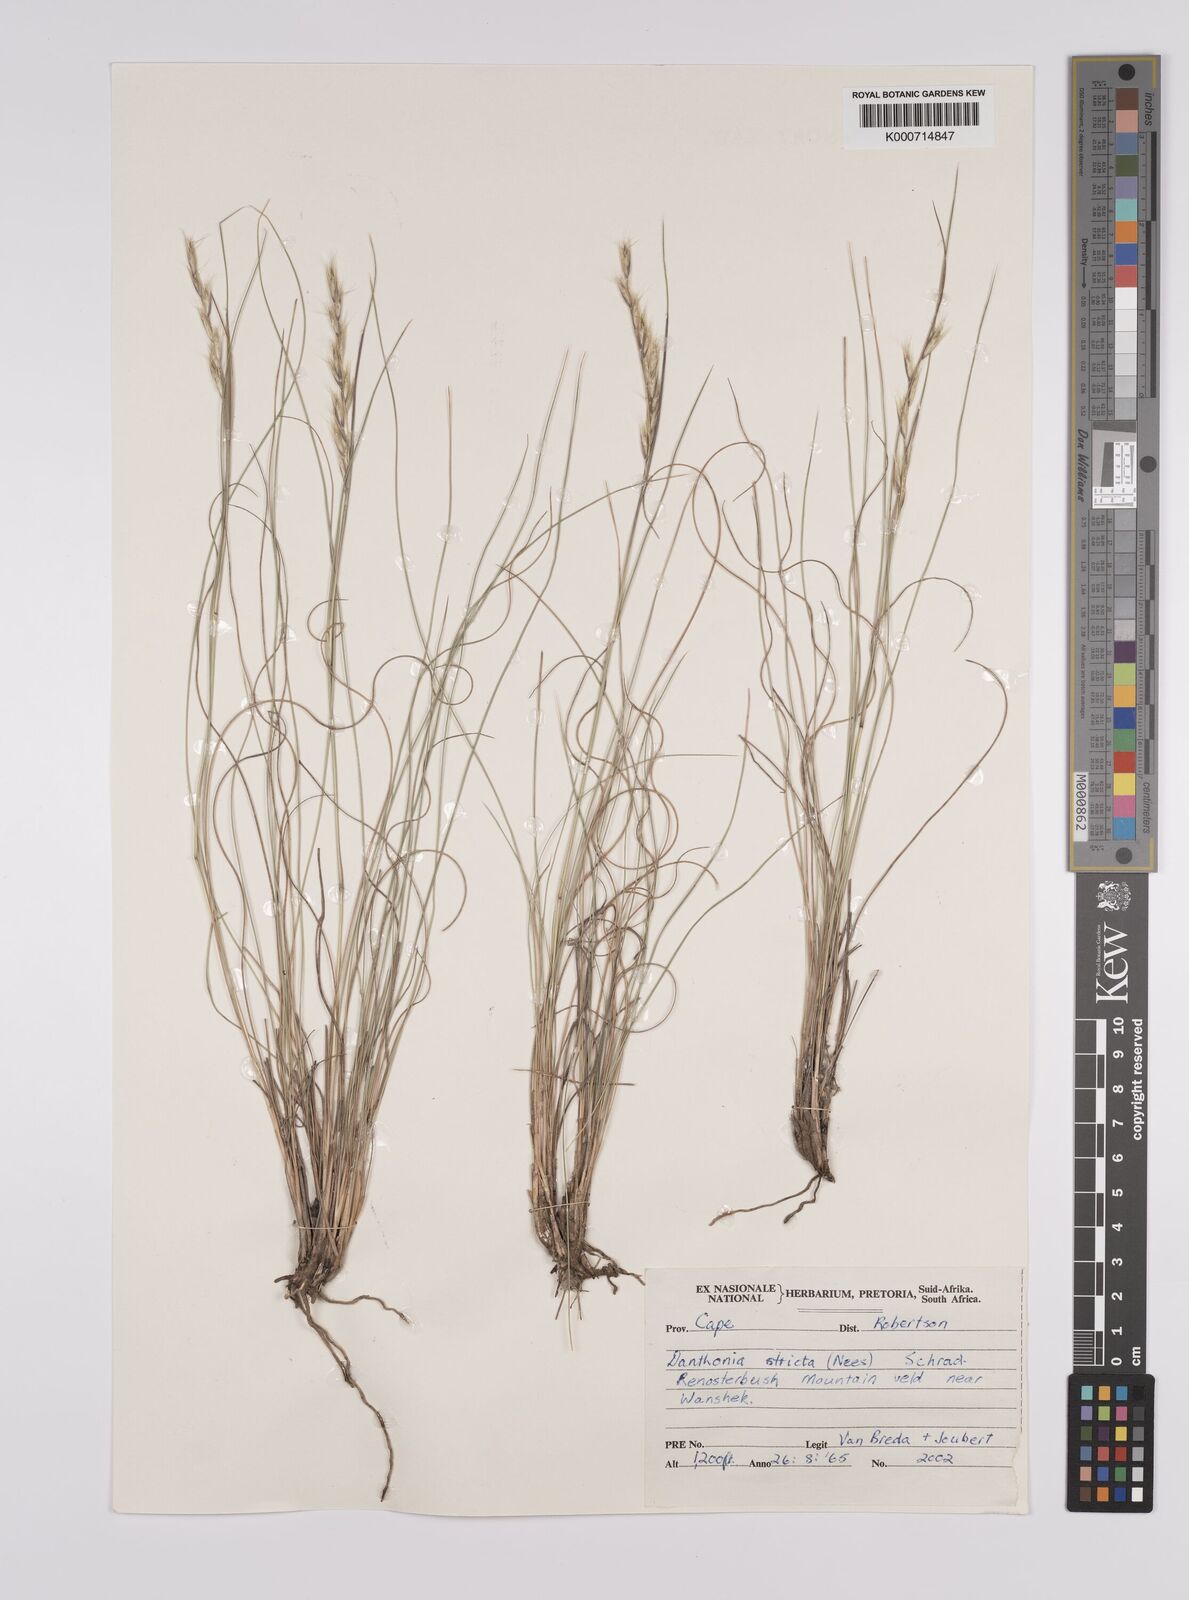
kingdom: Plantae
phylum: Tracheophyta
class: Liliopsida
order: Poales
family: Poaceae
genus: Rytidosperma
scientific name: Rytidosperma
